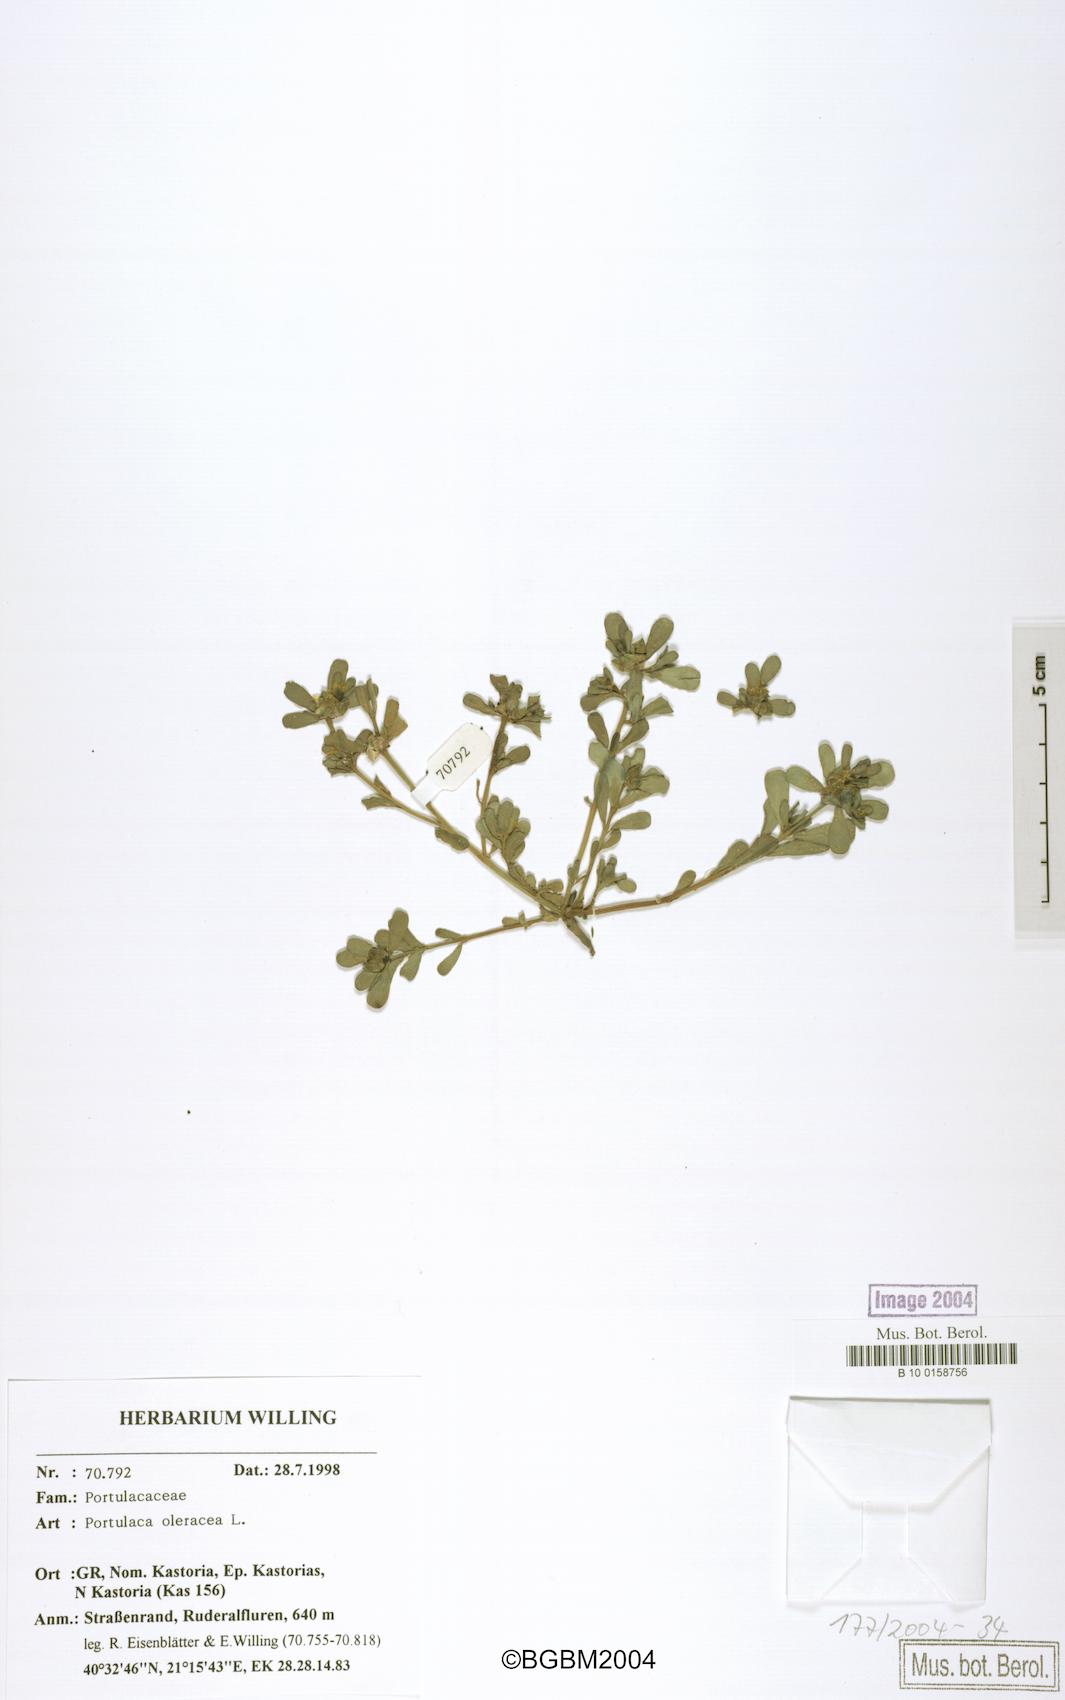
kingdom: Plantae
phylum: Tracheophyta
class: Magnoliopsida
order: Caryophyllales
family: Portulacaceae
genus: Portulaca
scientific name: Portulaca oleracea
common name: Common purslane
